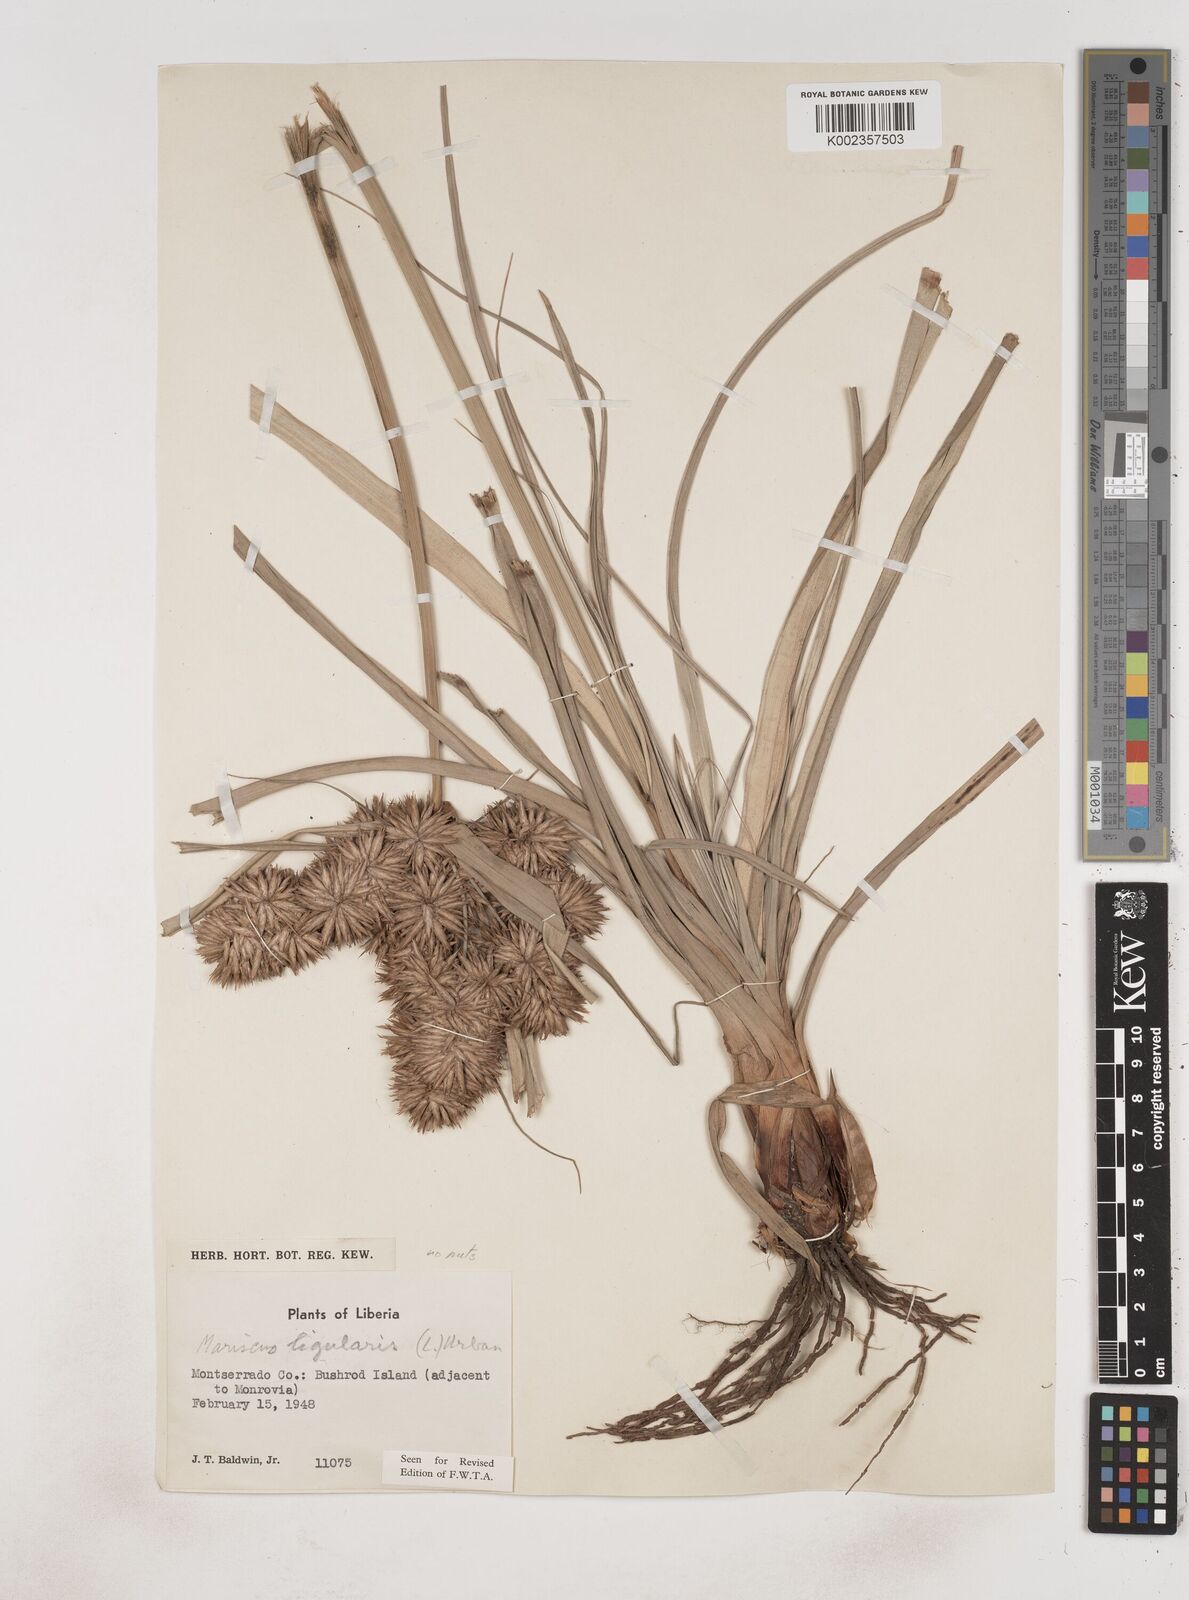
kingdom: Plantae
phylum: Tracheophyta
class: Liliopsida
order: Poales
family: Cyperaceae
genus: Cyperus
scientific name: Cyperus ligularis
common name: Swamp flat sedge
